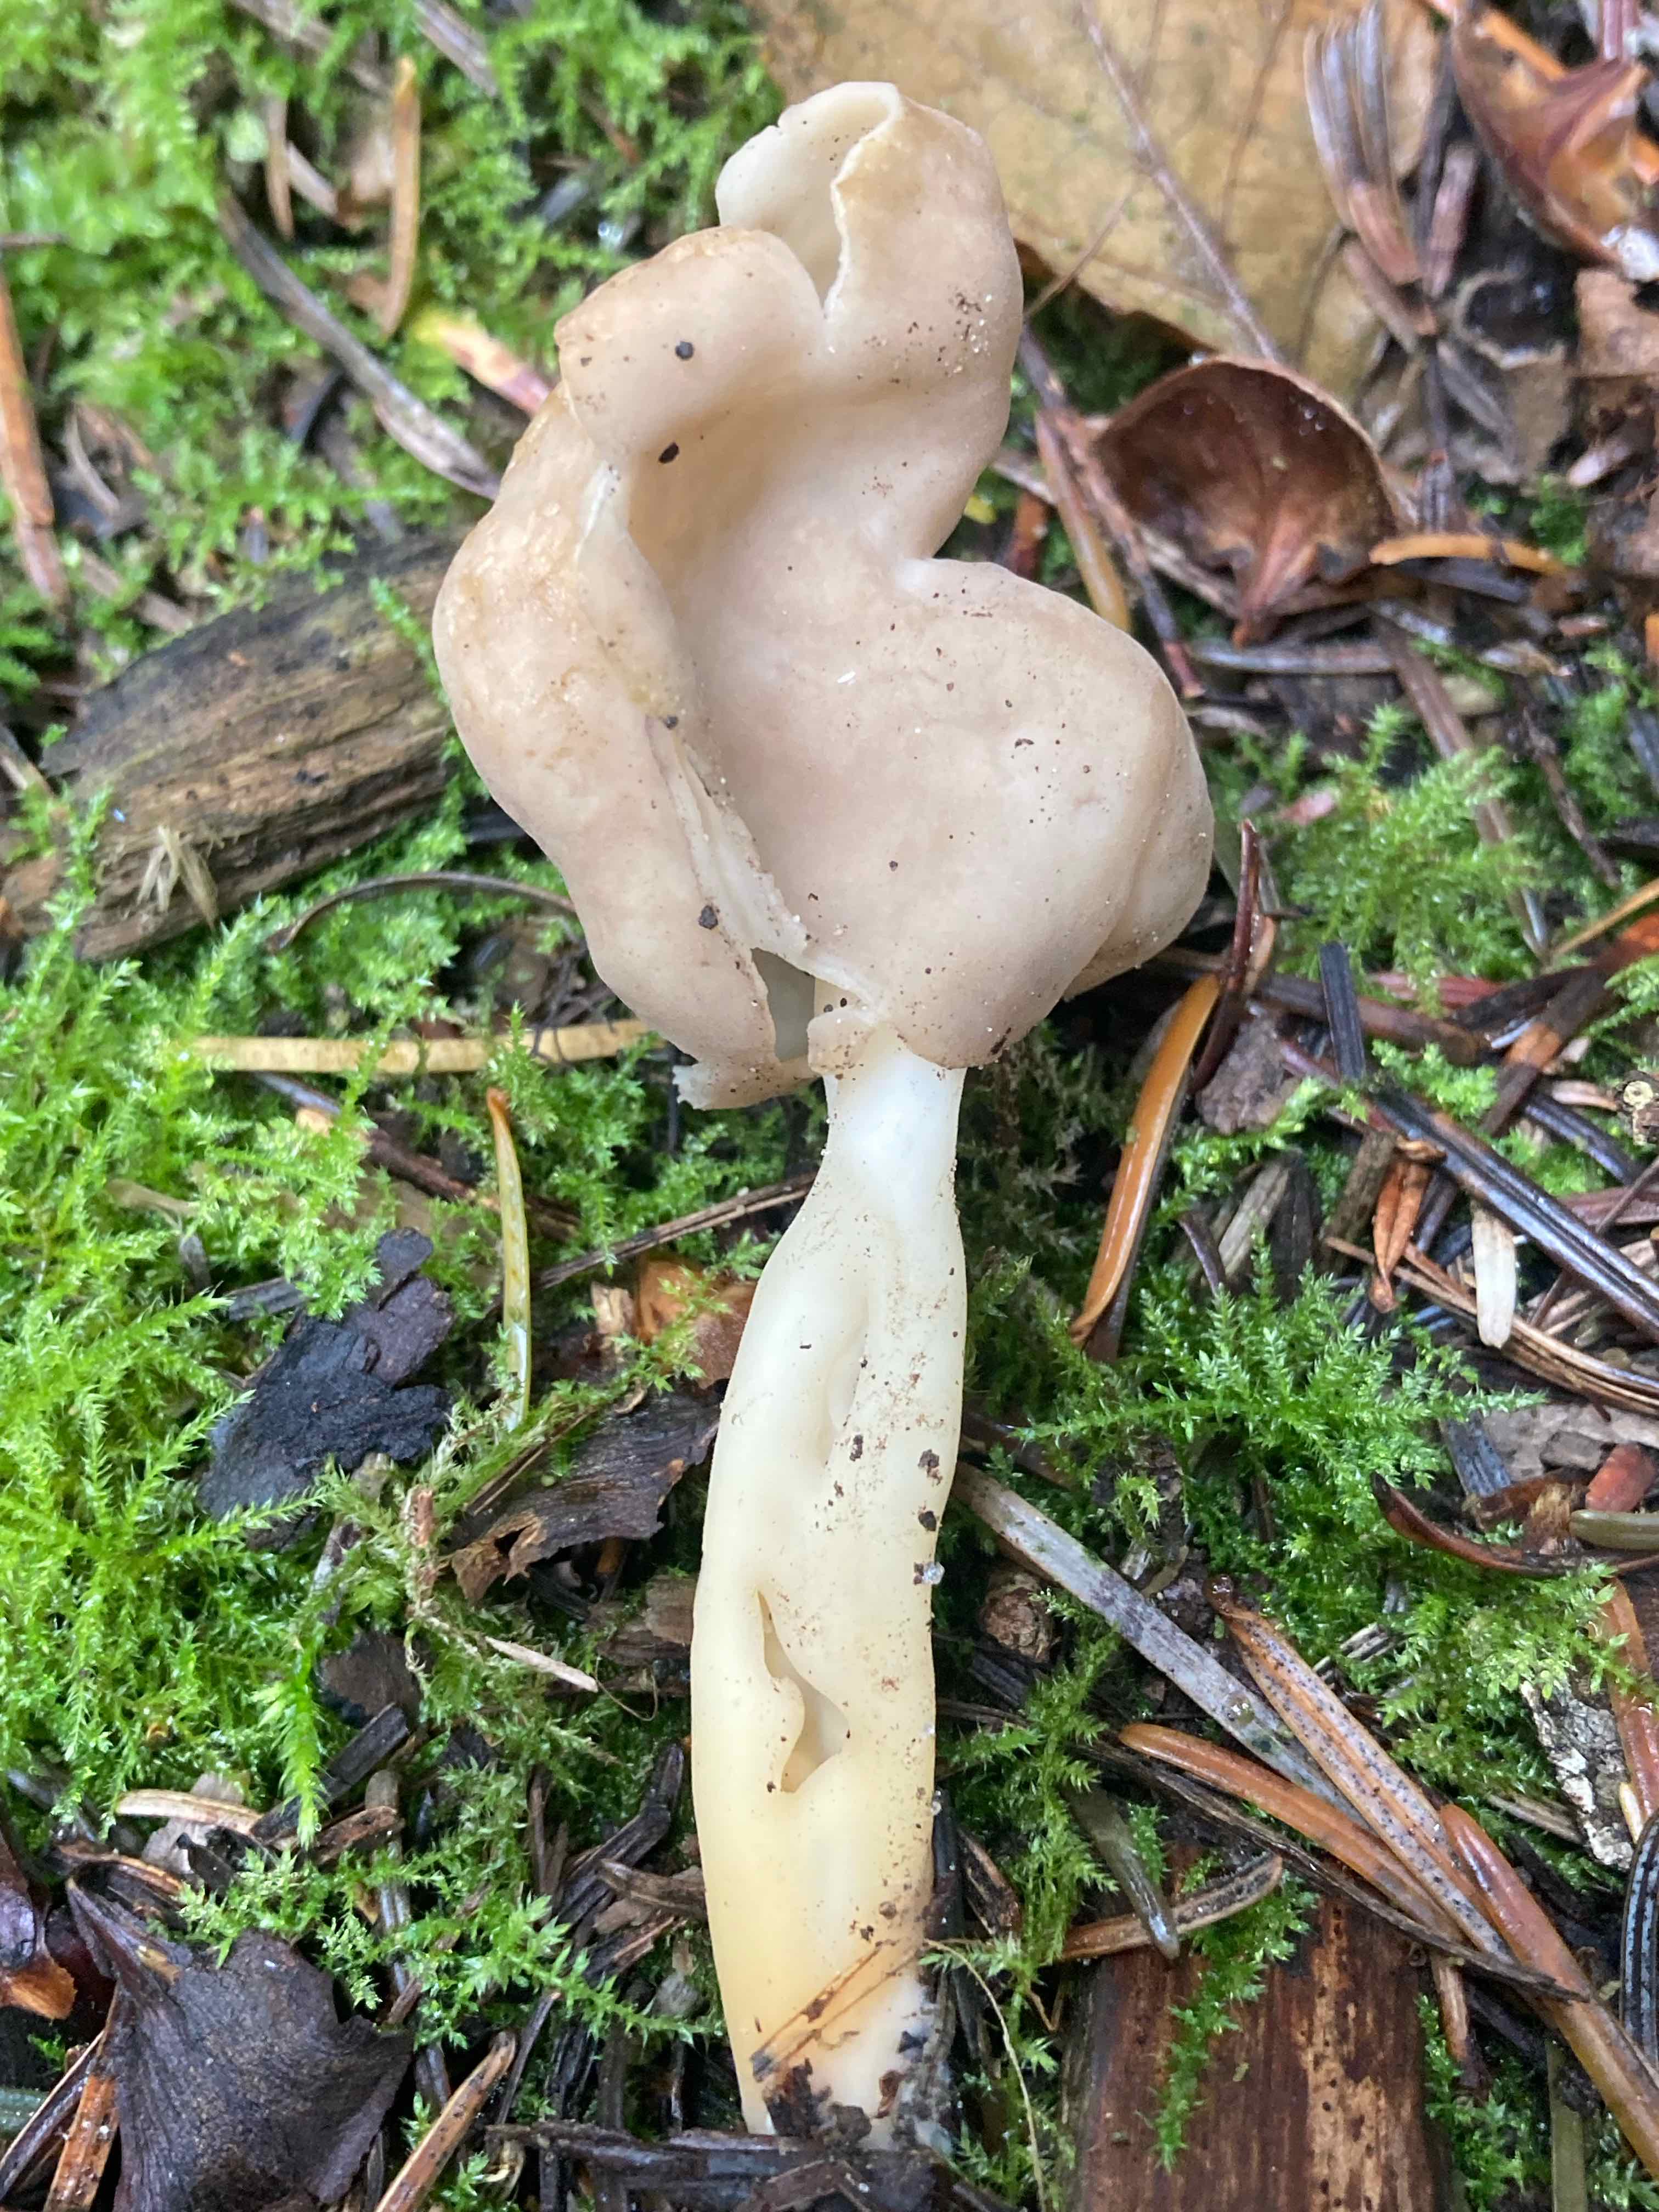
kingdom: Fungi
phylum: Ascomycota
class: Pezizomycetes
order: Pezizales
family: Helvellaceae
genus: Helvella
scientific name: Helvella elastica
